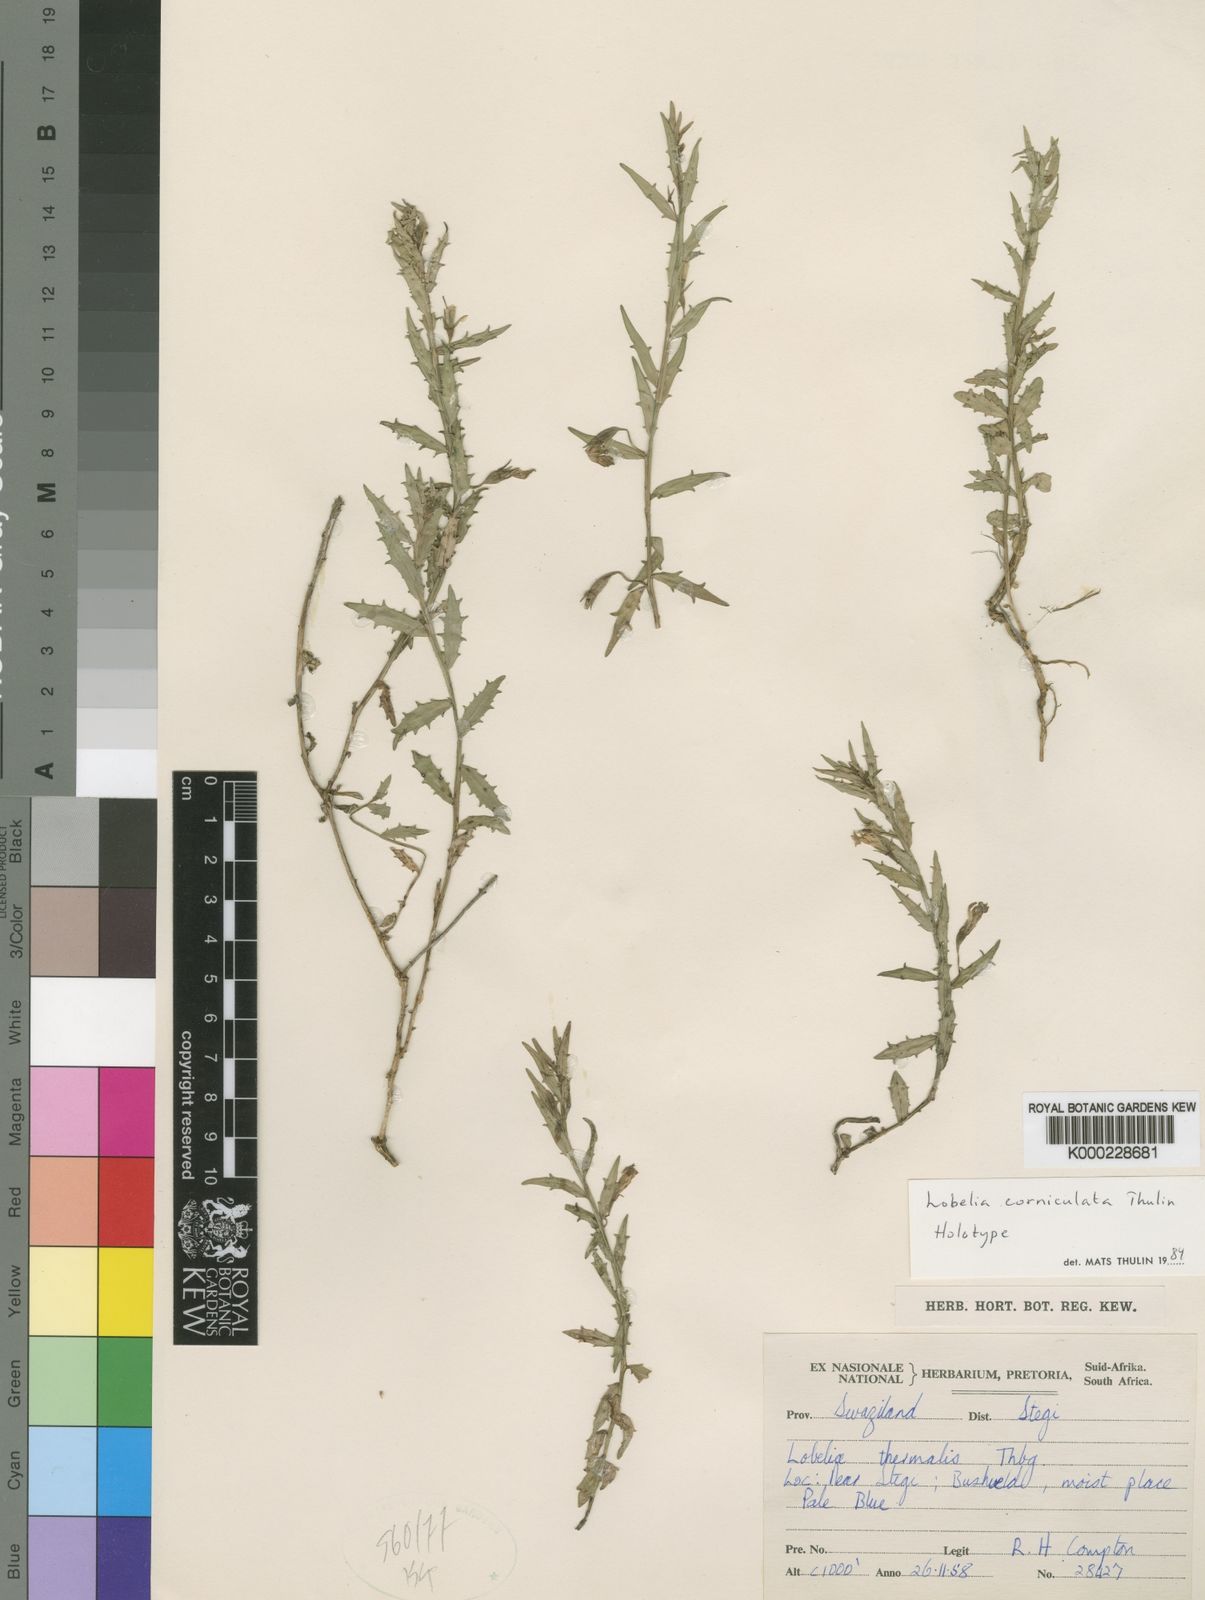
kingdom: Plantae
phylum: Tracheophyta
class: Magnoliopsida
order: Asterales
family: Campanulaceae
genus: Lobelia
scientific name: Lobelia corniculata
